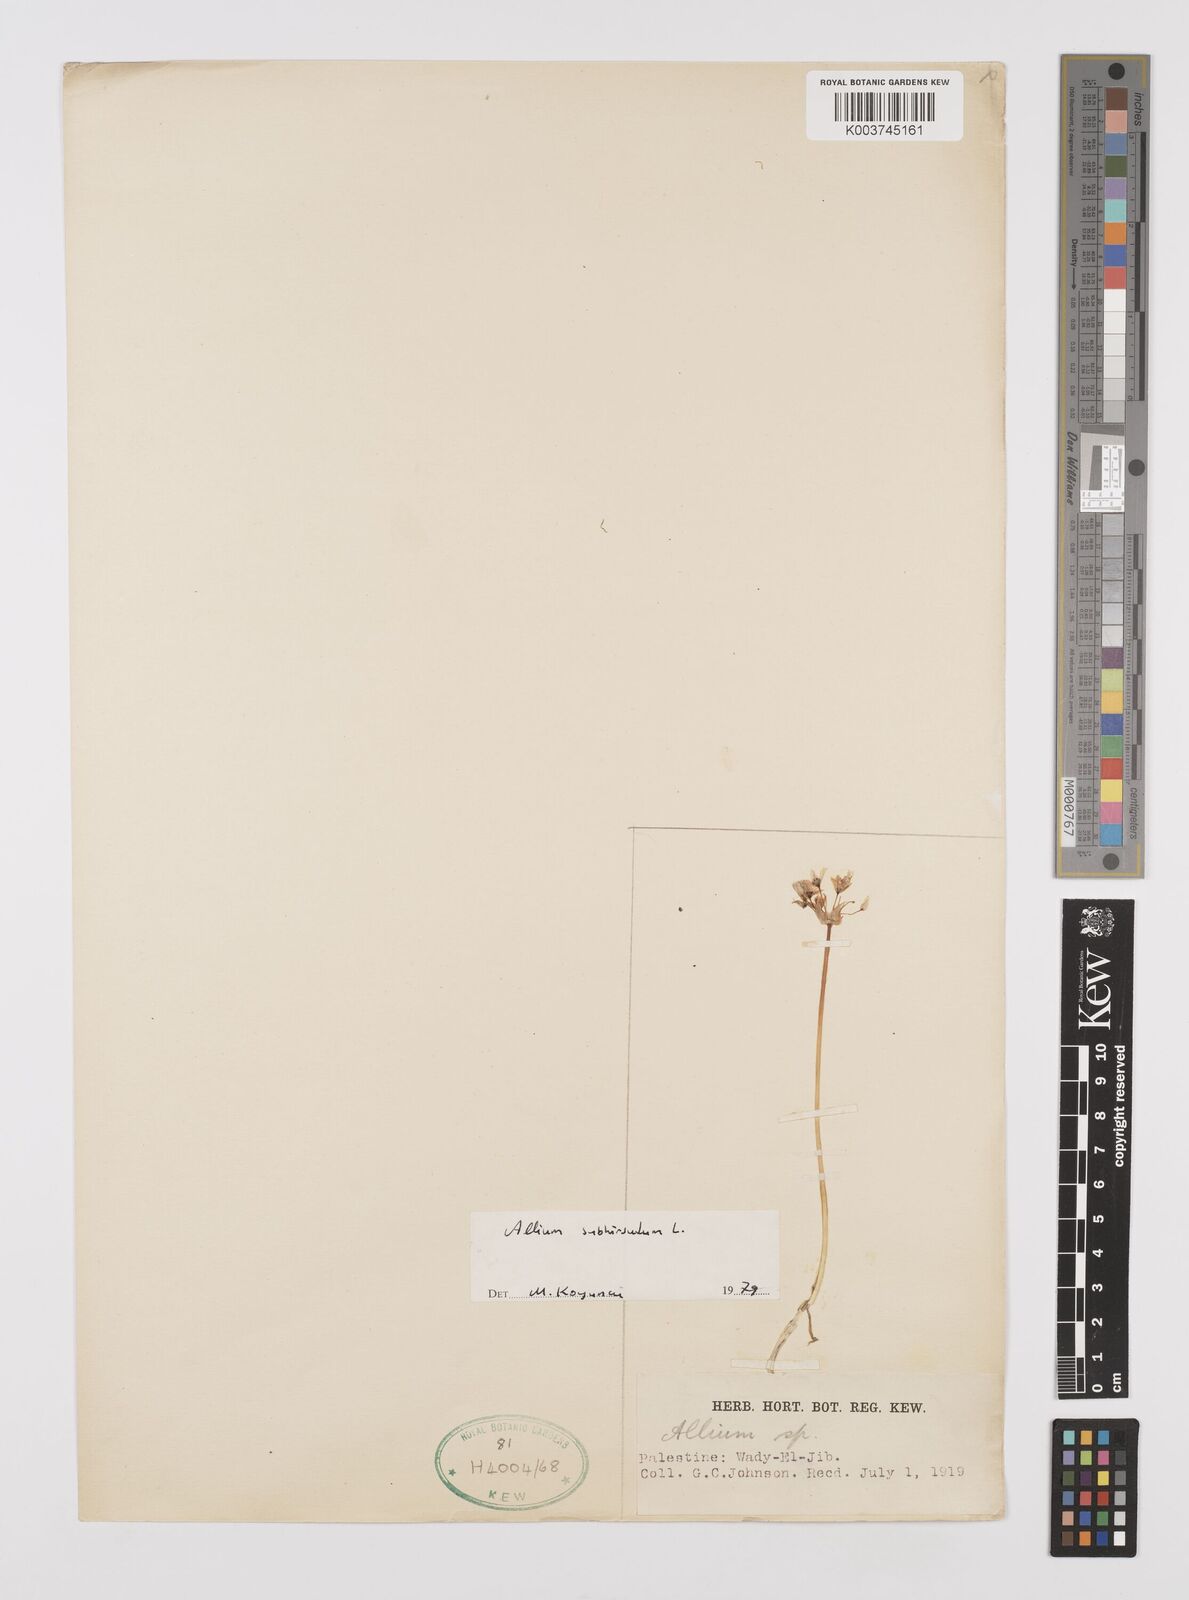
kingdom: Plantae
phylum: Tracheophyta
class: Liliopsida
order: Asparagales
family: Amaryllidaceae
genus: Allium
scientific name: Allium subhirsutum
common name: Hairy garlic
